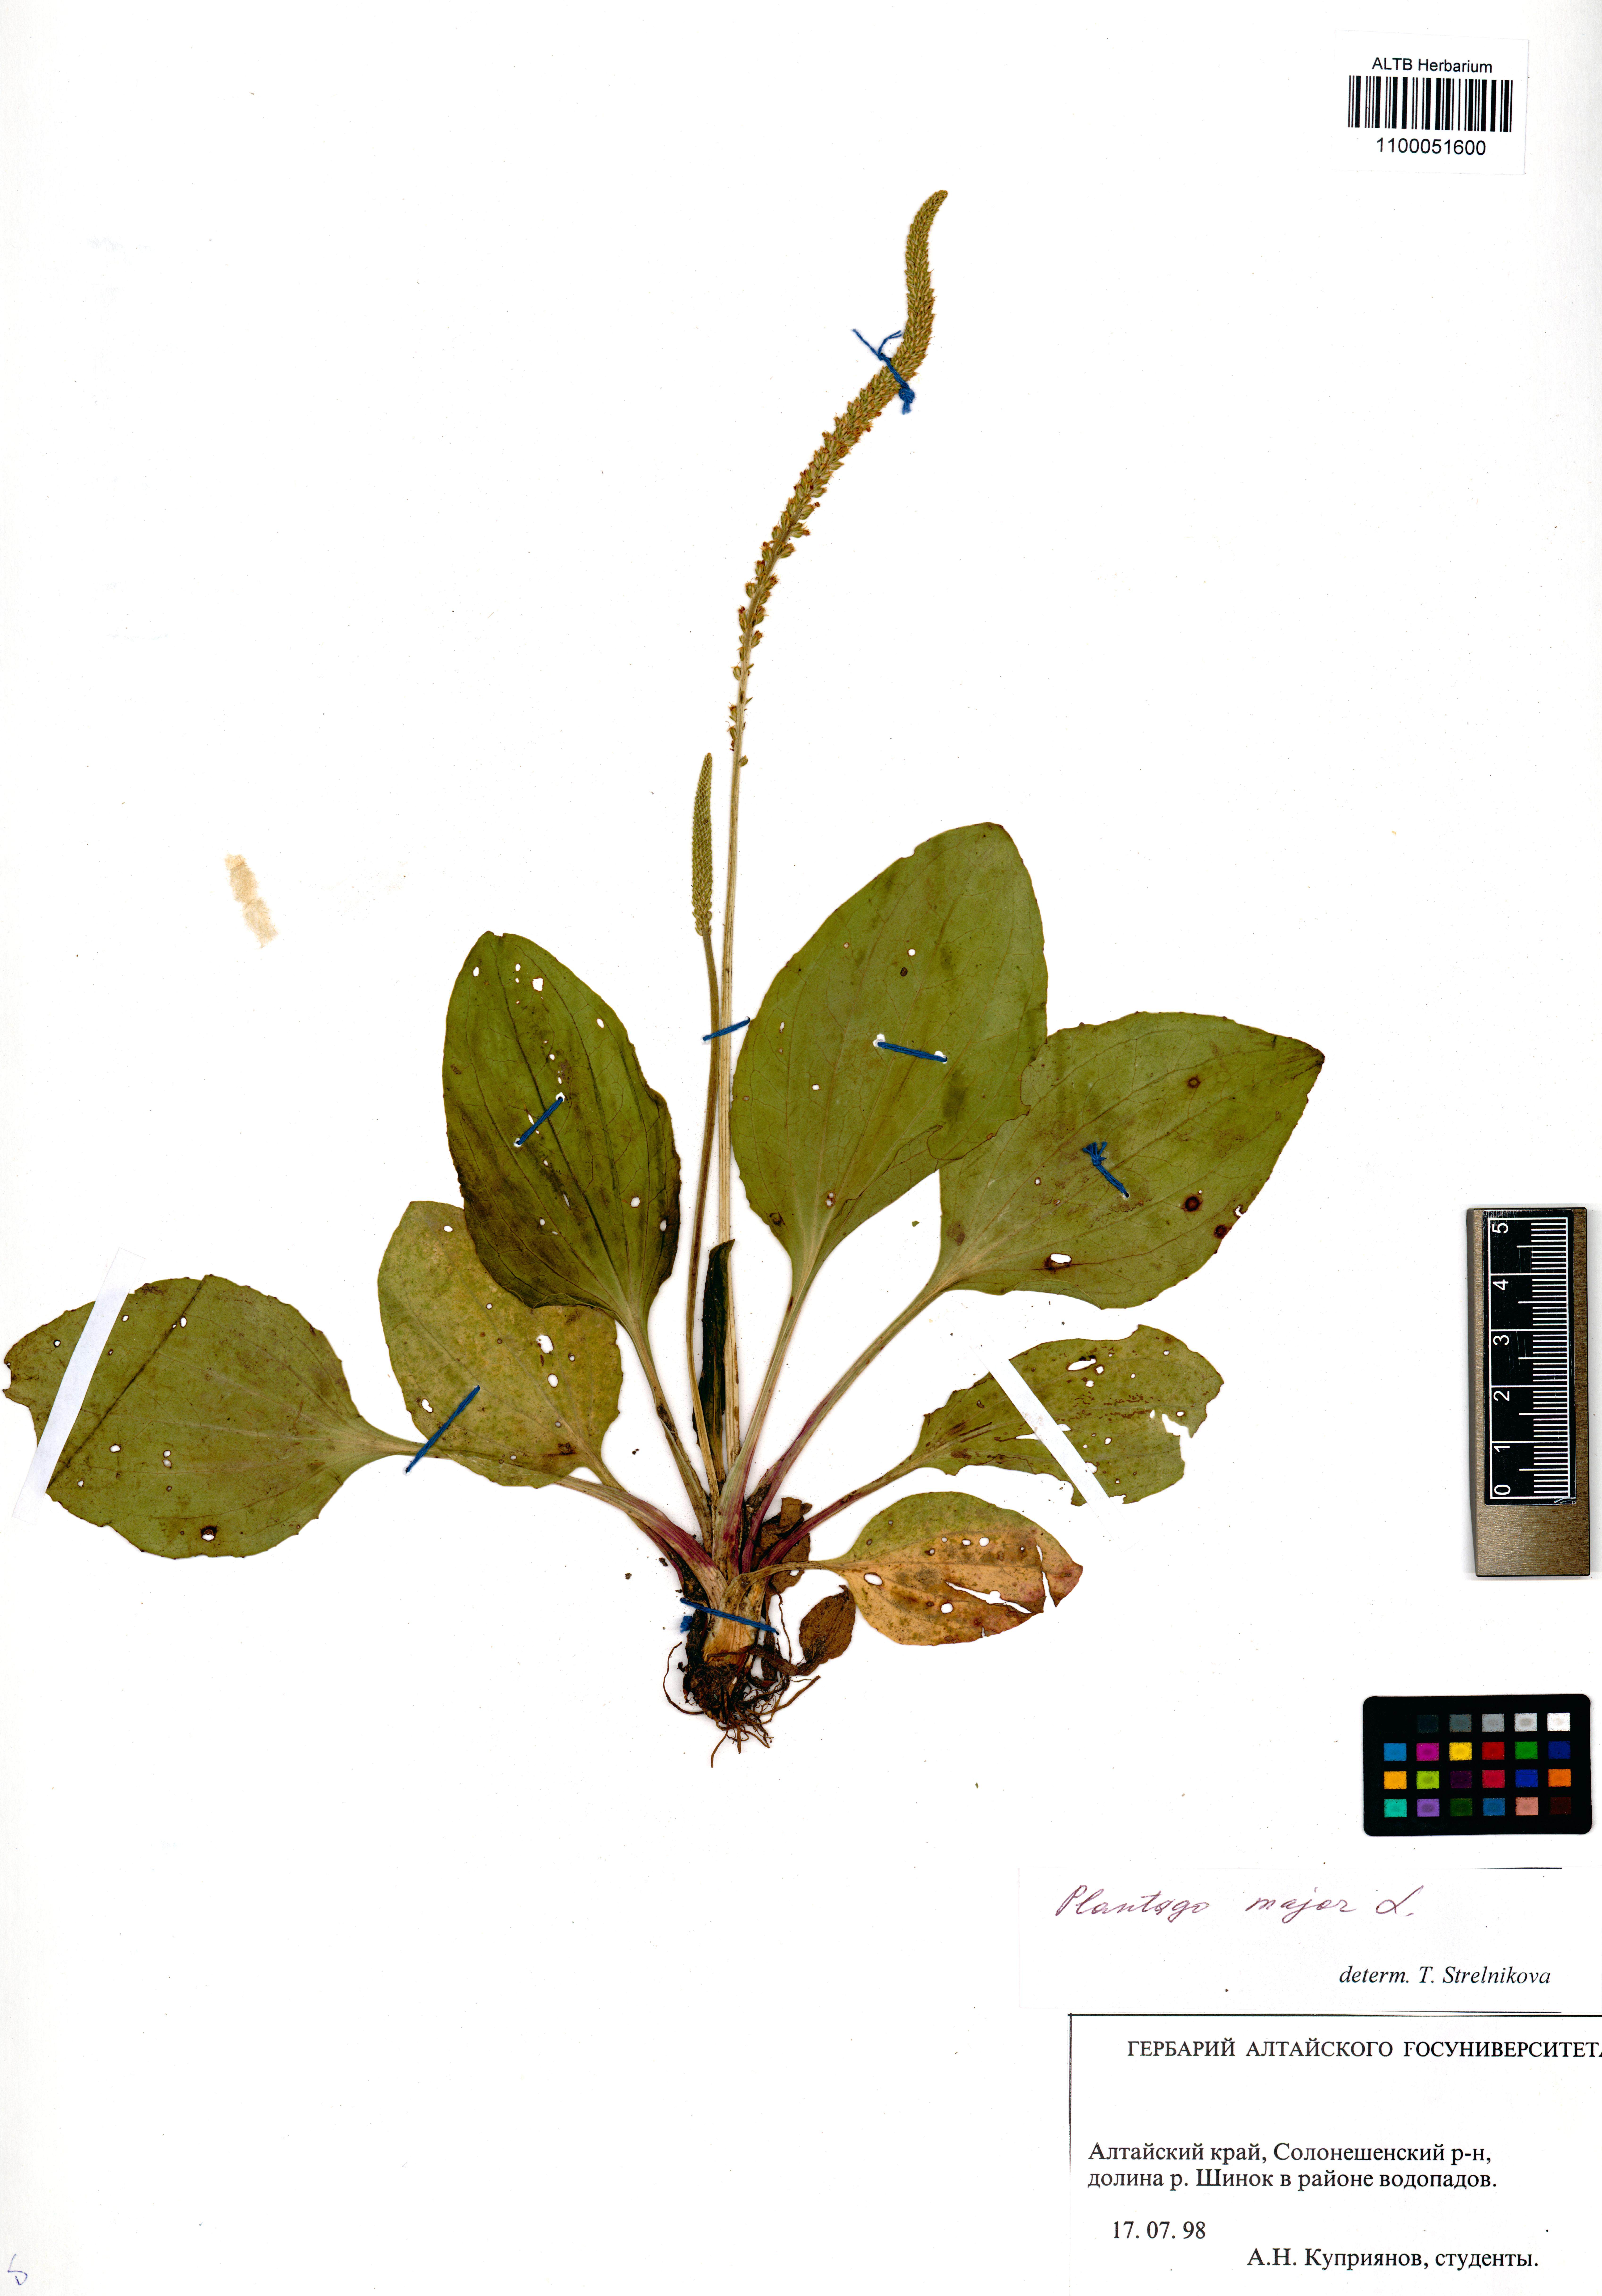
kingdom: Plantae
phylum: Tracheophyta
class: Magnoliopsida
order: Lamiales
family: Plantaginaceae
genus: Plantago
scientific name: Plantago major
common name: Common plantain
